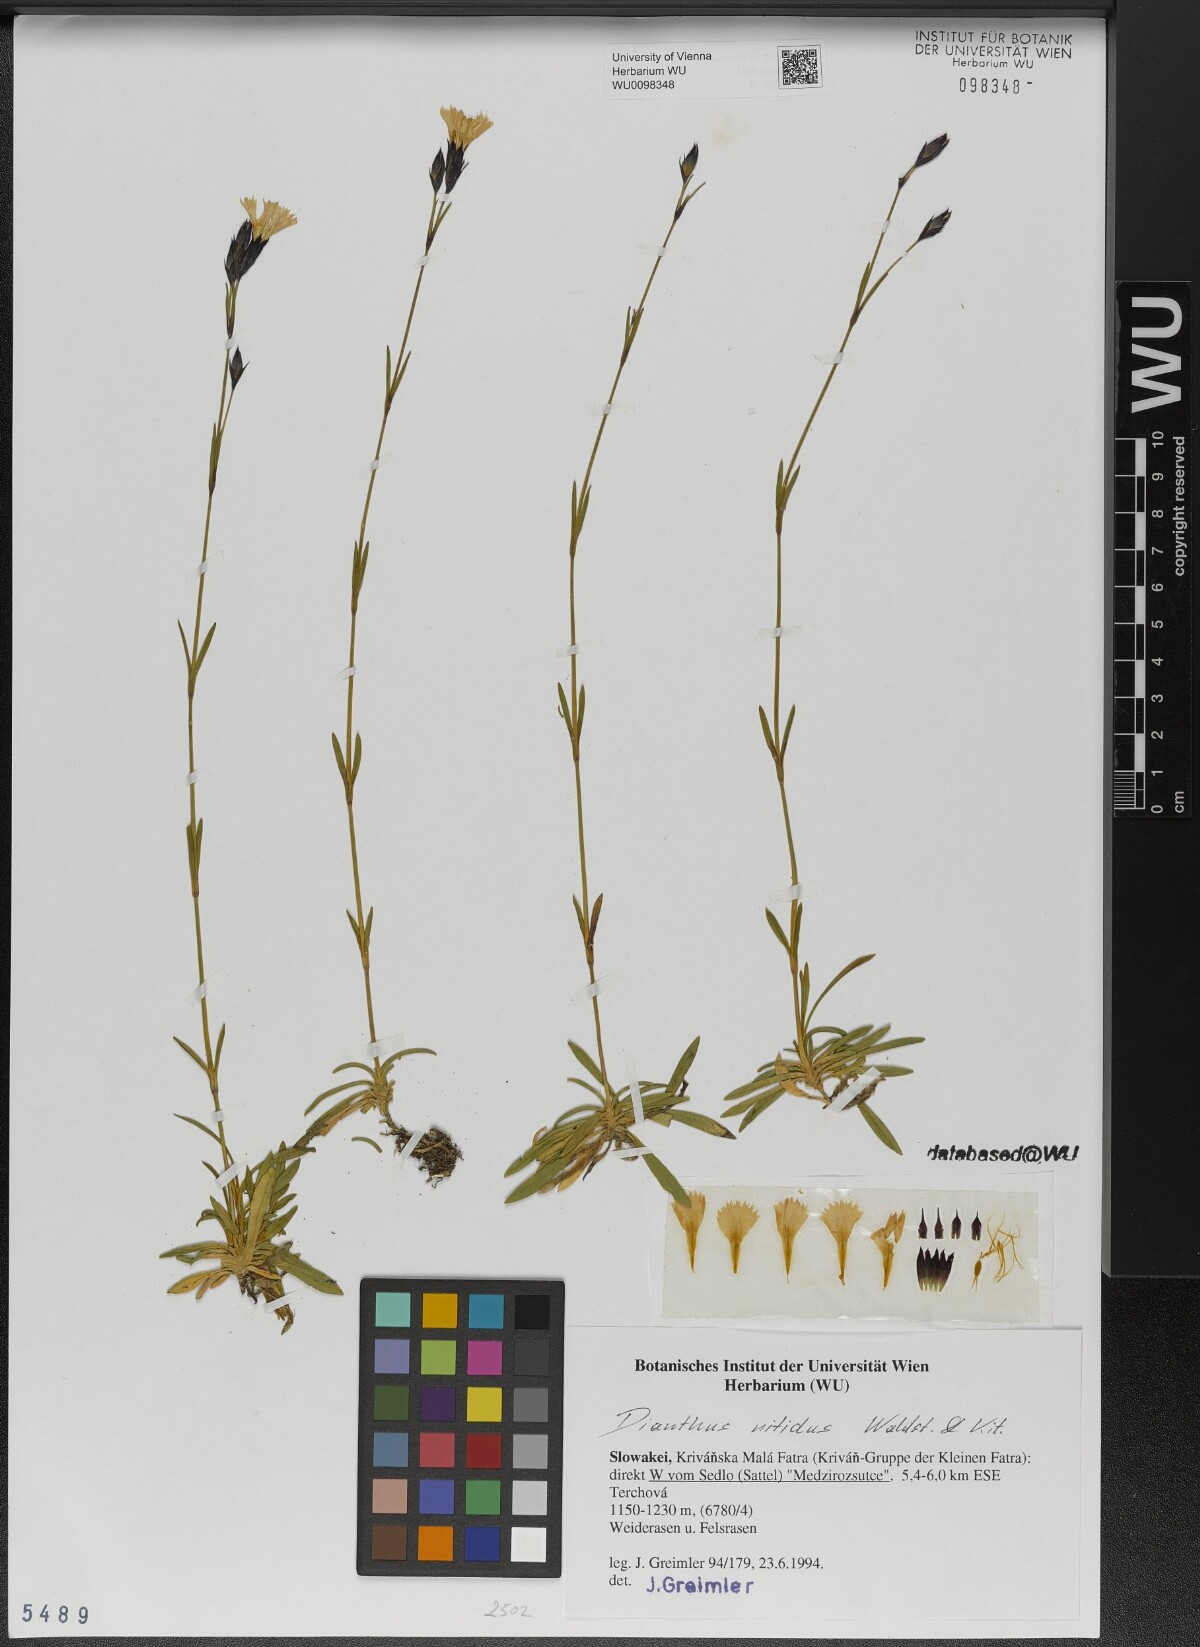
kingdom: Plantae
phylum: Tracheophyta
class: Magnoliopsida
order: Caryophyllales
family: Caryophyllaceae
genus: Dianthus
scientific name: Dianthus nitidus
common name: Carpathian glossy pink
